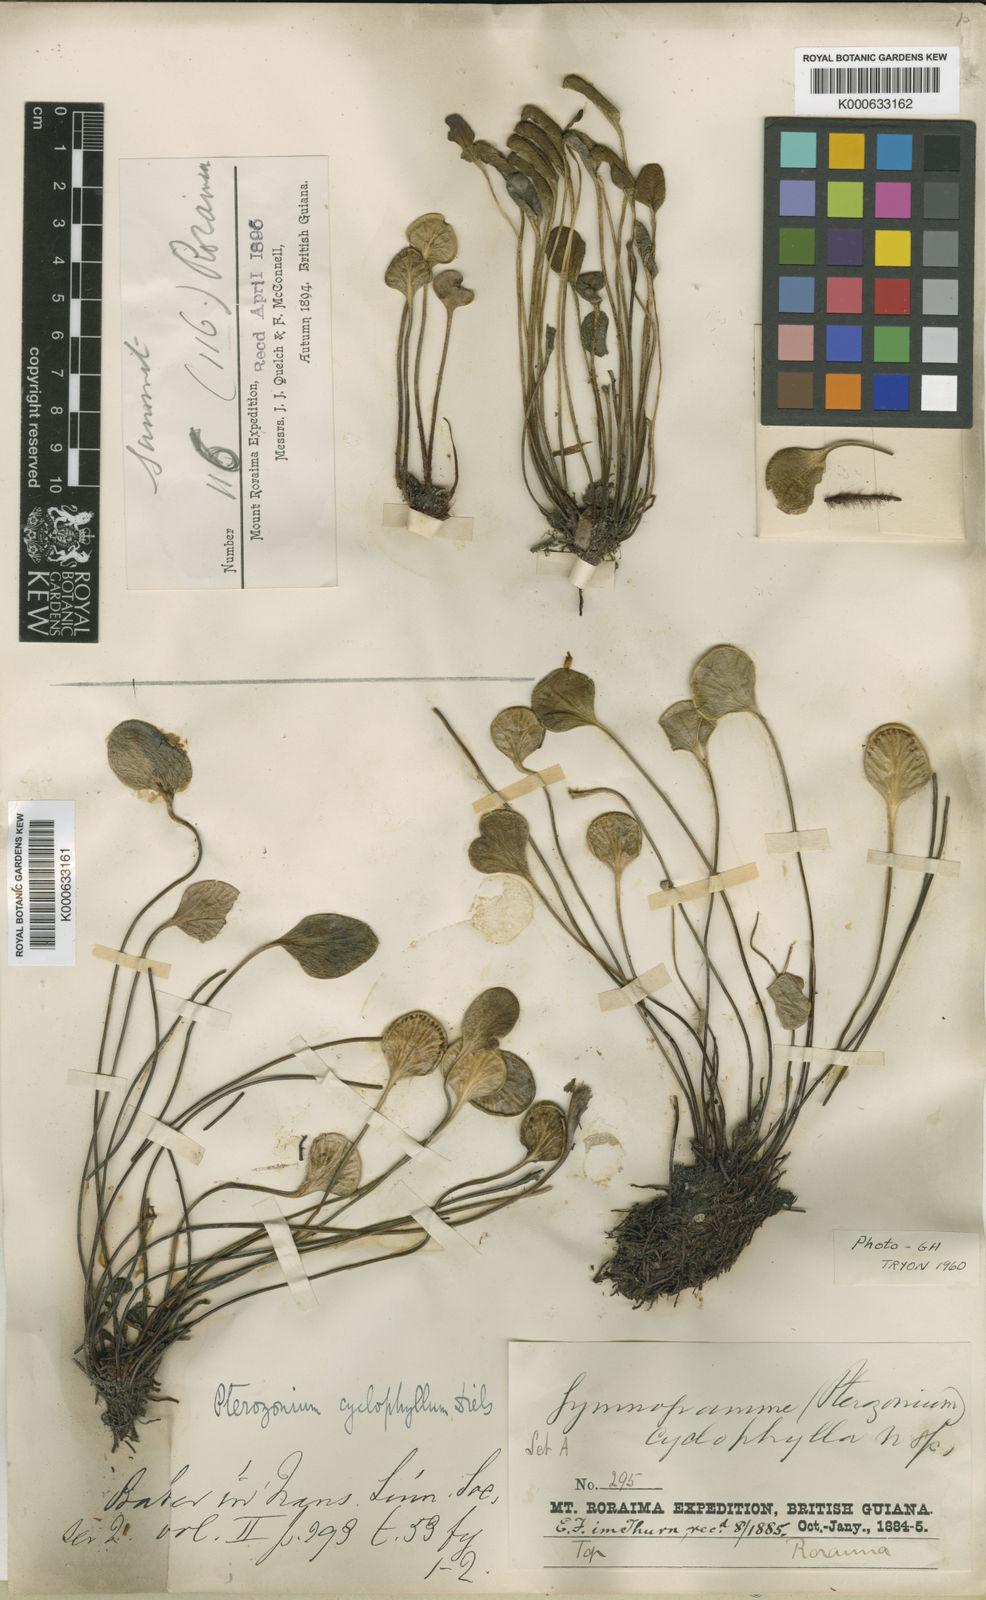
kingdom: Plantae
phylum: Tracheophyta
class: Polypodiopsida
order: Polypodiales
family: Pteridaceae
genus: Pterozonium
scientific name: Pterozonium cyclophyllum
